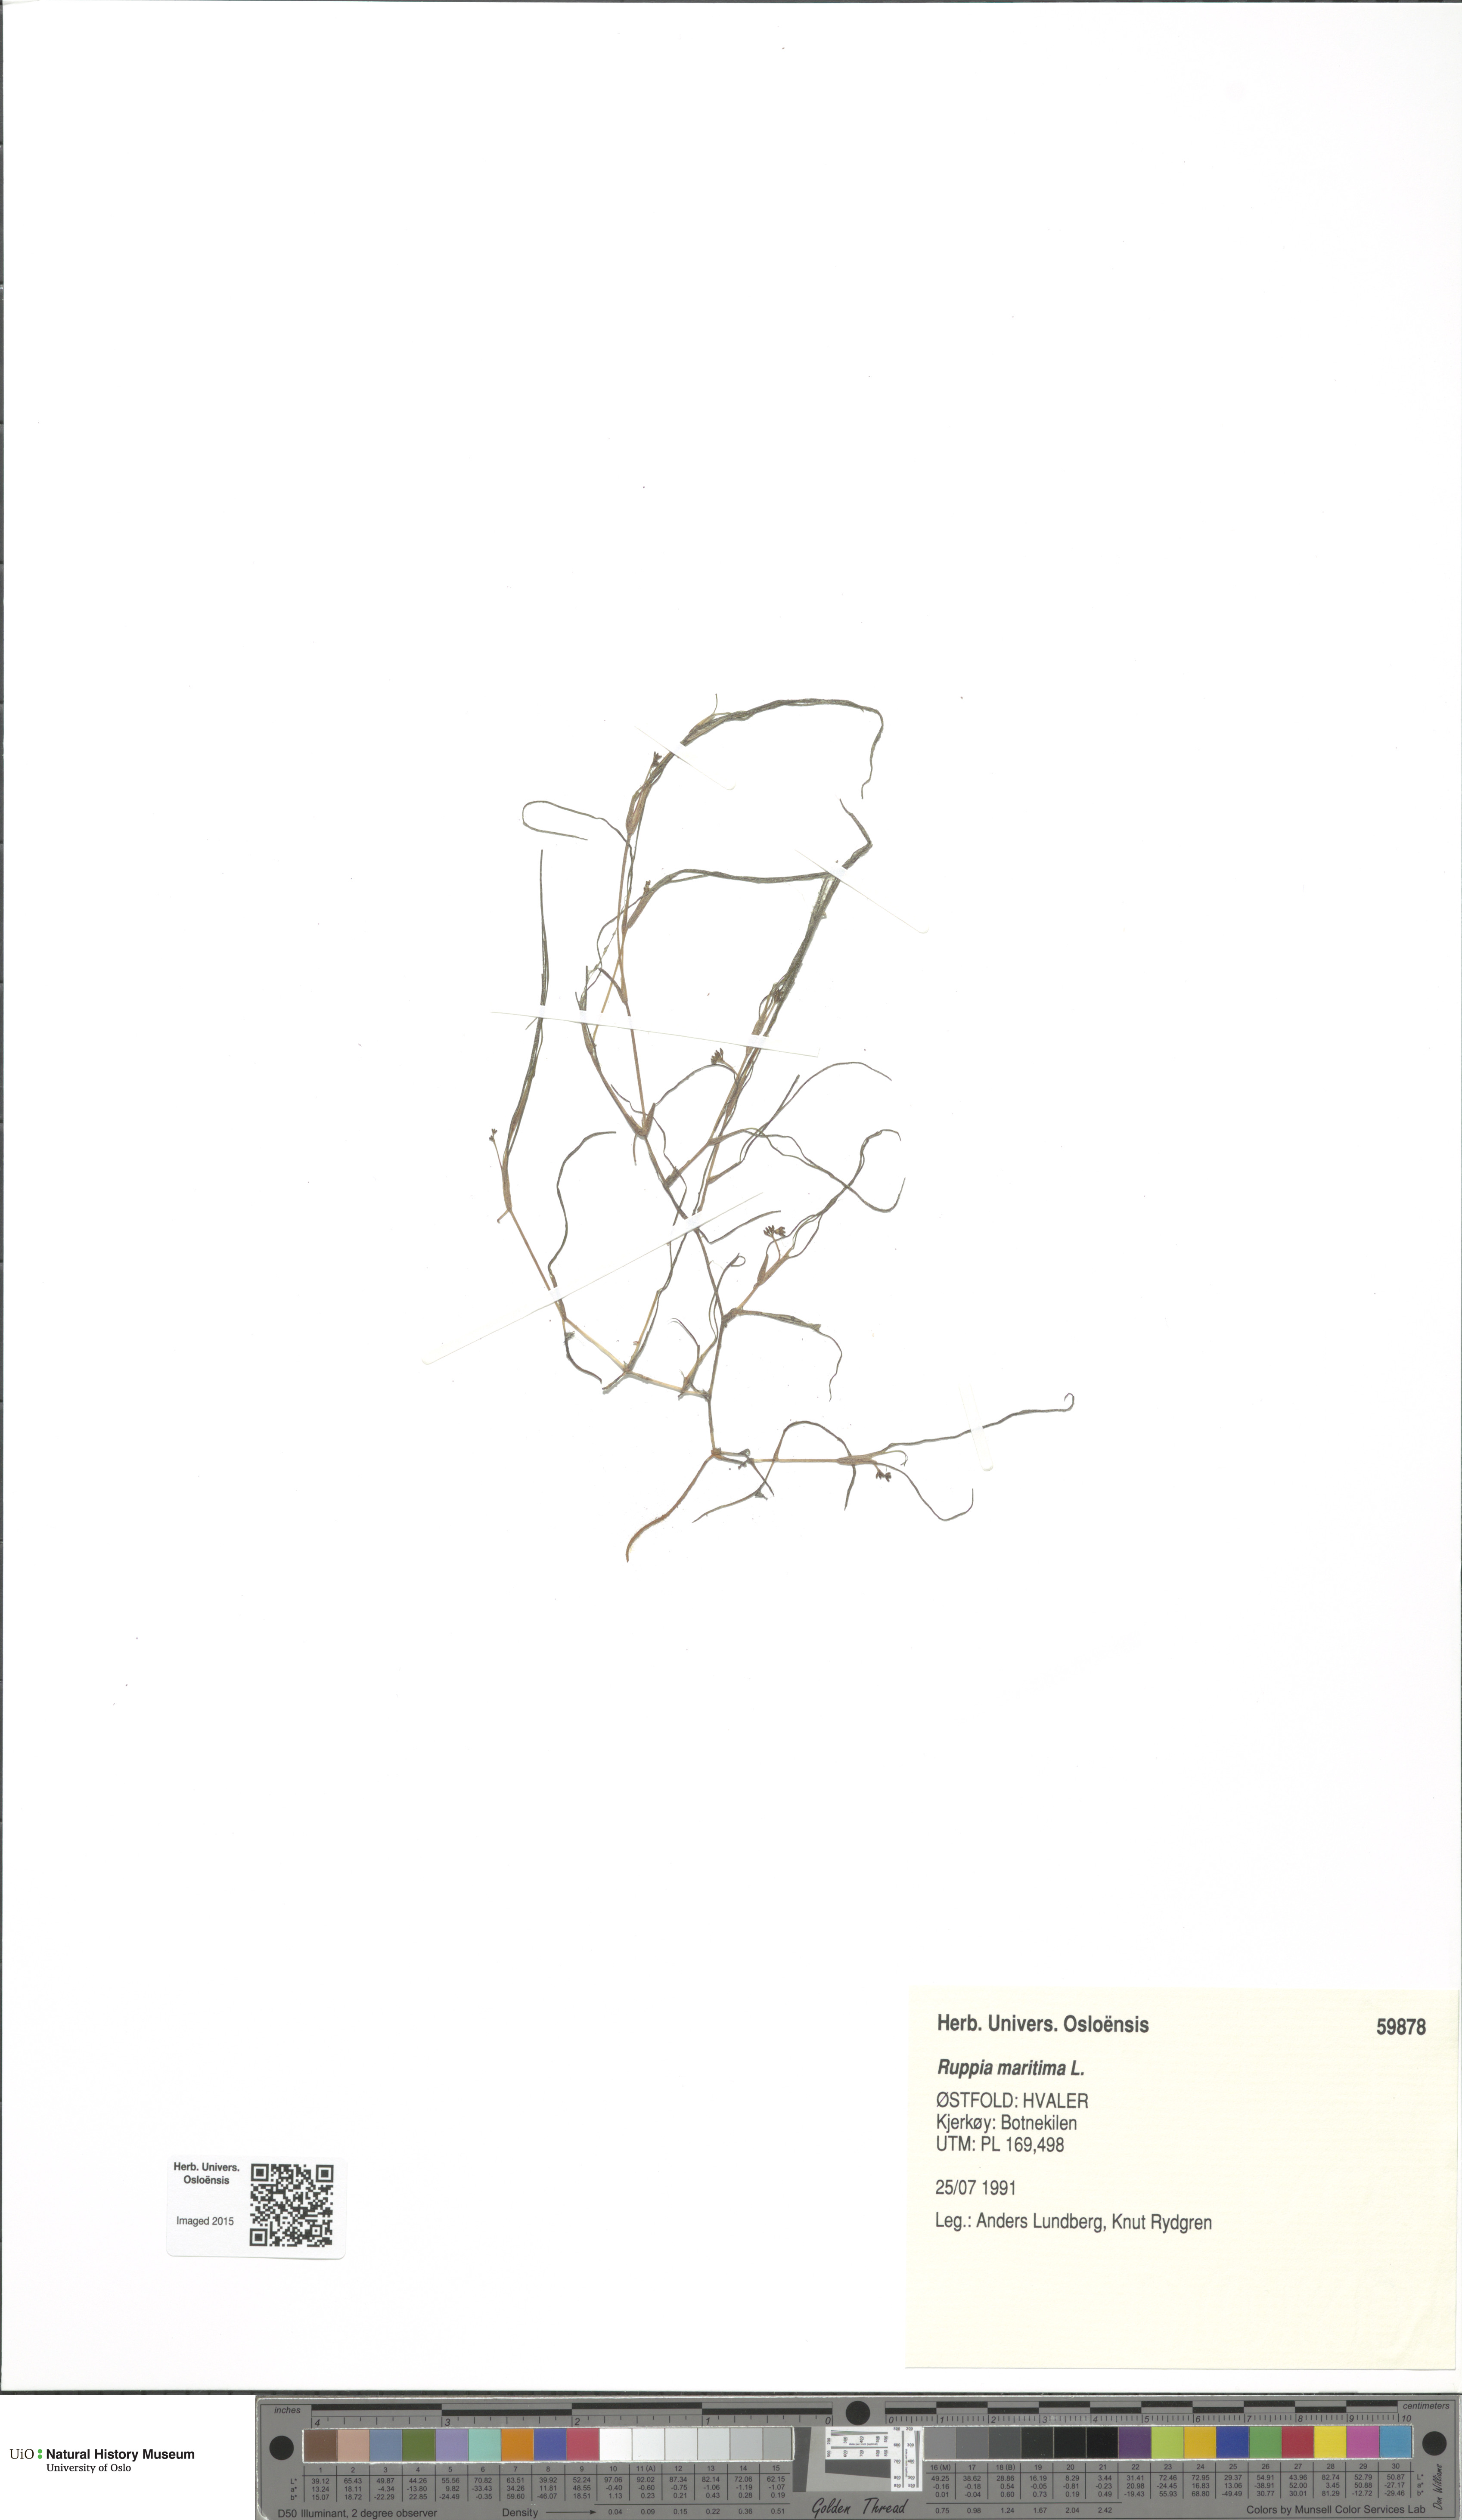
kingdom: Plantae
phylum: Tracheophyta
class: Liliopsida
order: Alismatales
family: Ruppiaceae
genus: Ruppia
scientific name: Ruppia maritima
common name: Beaked tasselweed
